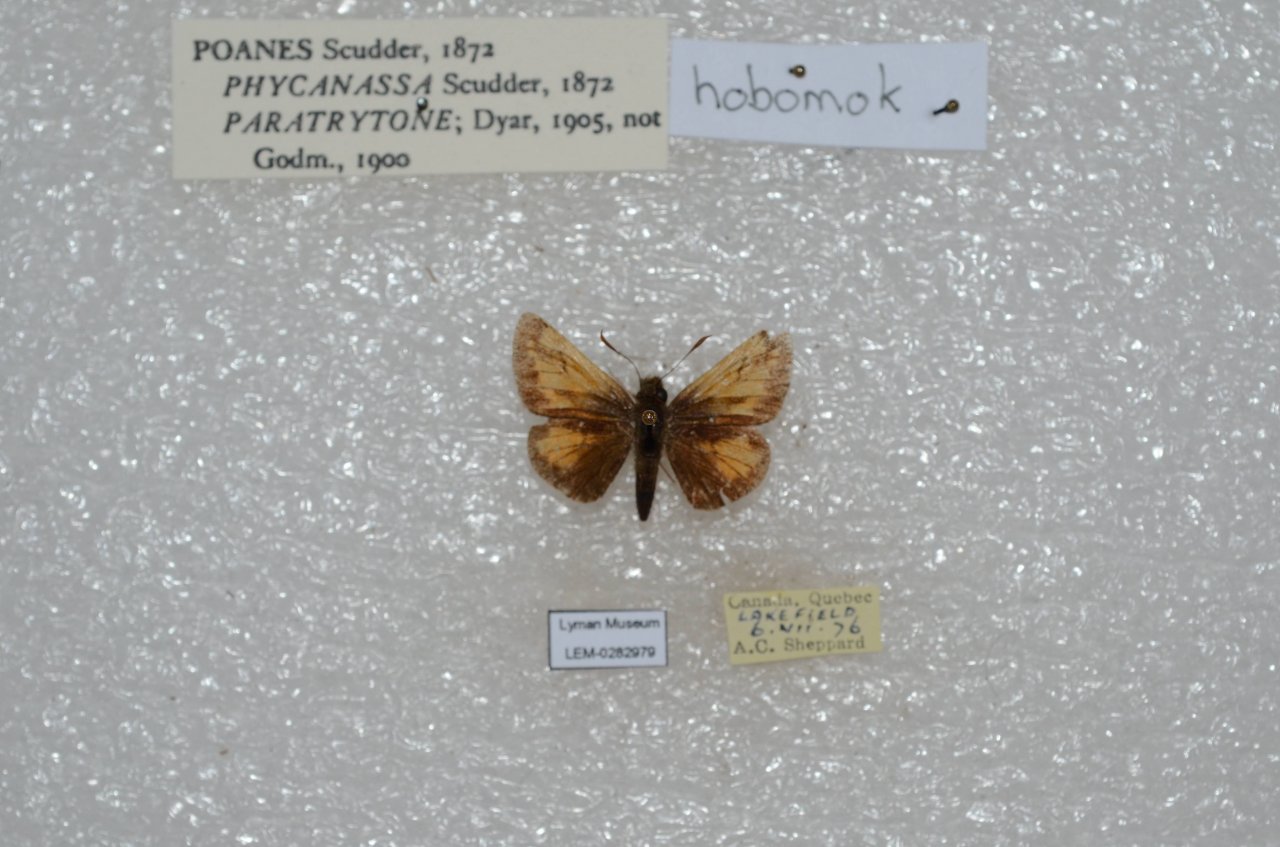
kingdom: Animalia
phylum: Arthropoda
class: Insecta
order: Lepidoptera
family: Hesperiidae
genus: Lon
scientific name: Lon hobomok
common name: Hobomok Skipper
